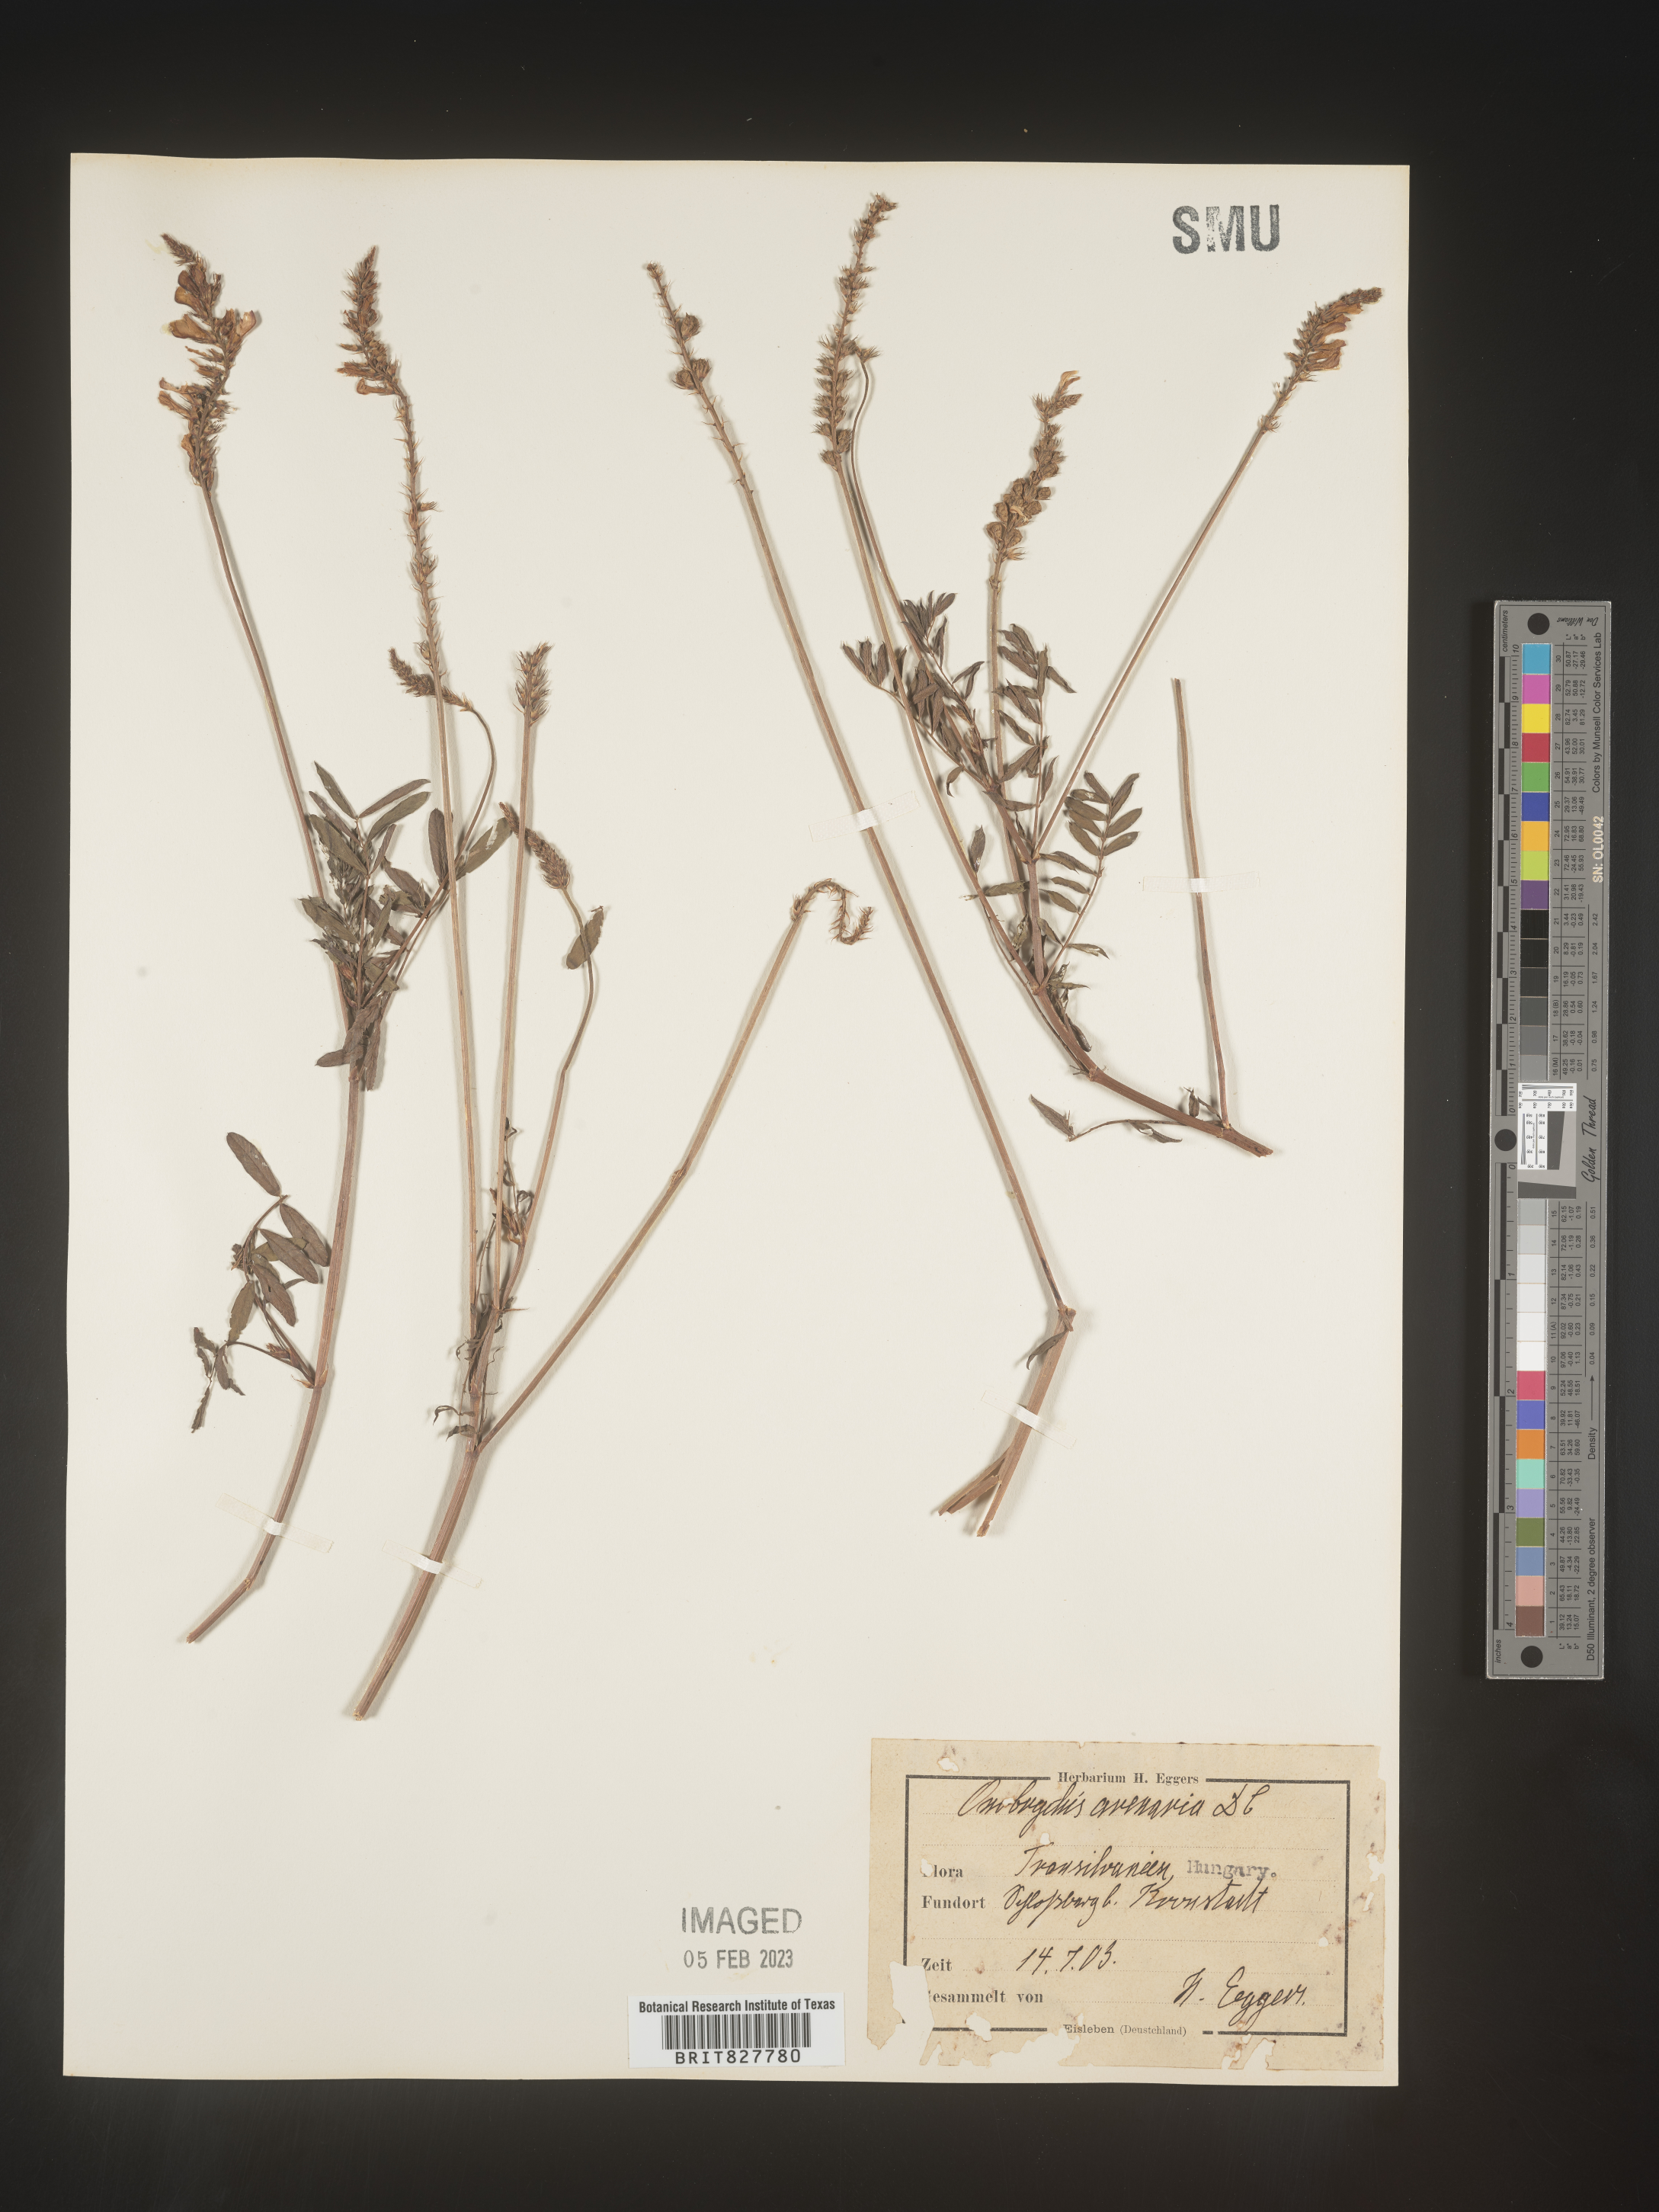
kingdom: Plantae
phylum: Tracheophyta
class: Magnoliopsida
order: Fabales
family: Fabaceae
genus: Onobrychis
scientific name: Onobrychis
